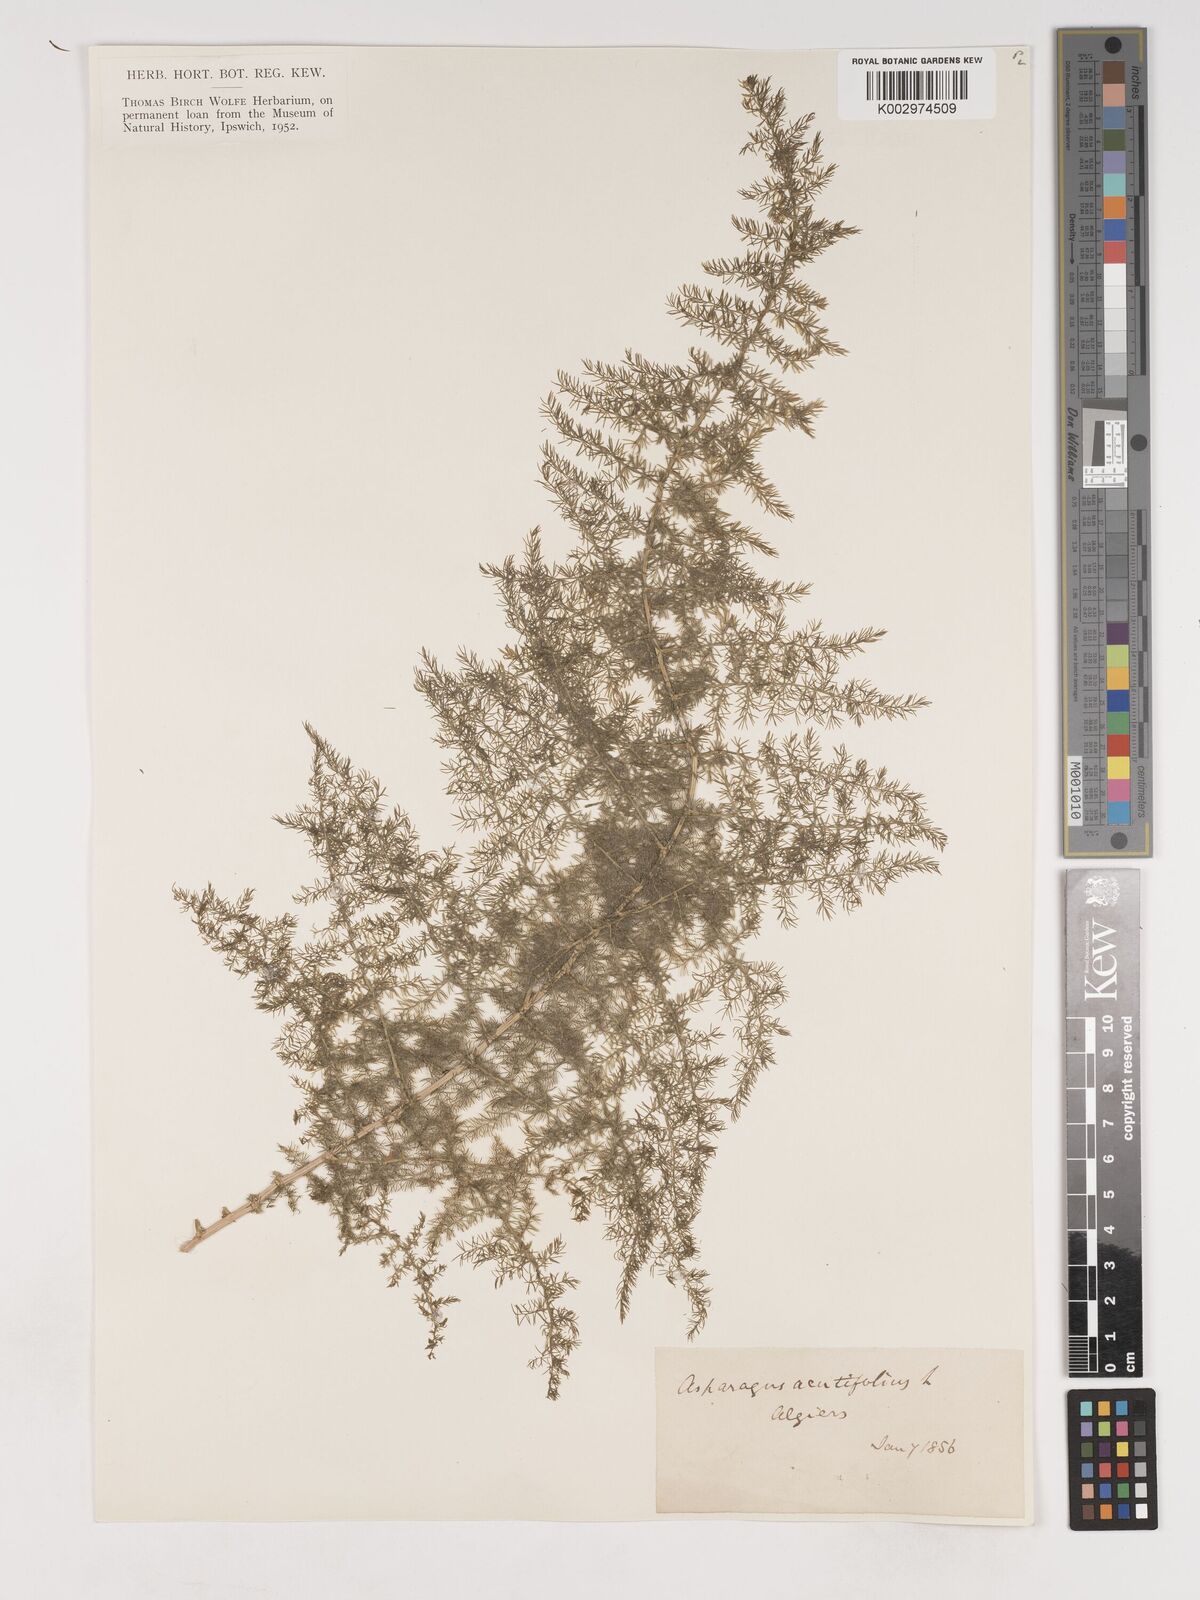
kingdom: Plantae
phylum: Tracheophyta
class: Liliopsida
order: Asparagales
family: Asparagaceae
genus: Asparagus
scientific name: Asparagus acutifolius
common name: Wild asparagus
